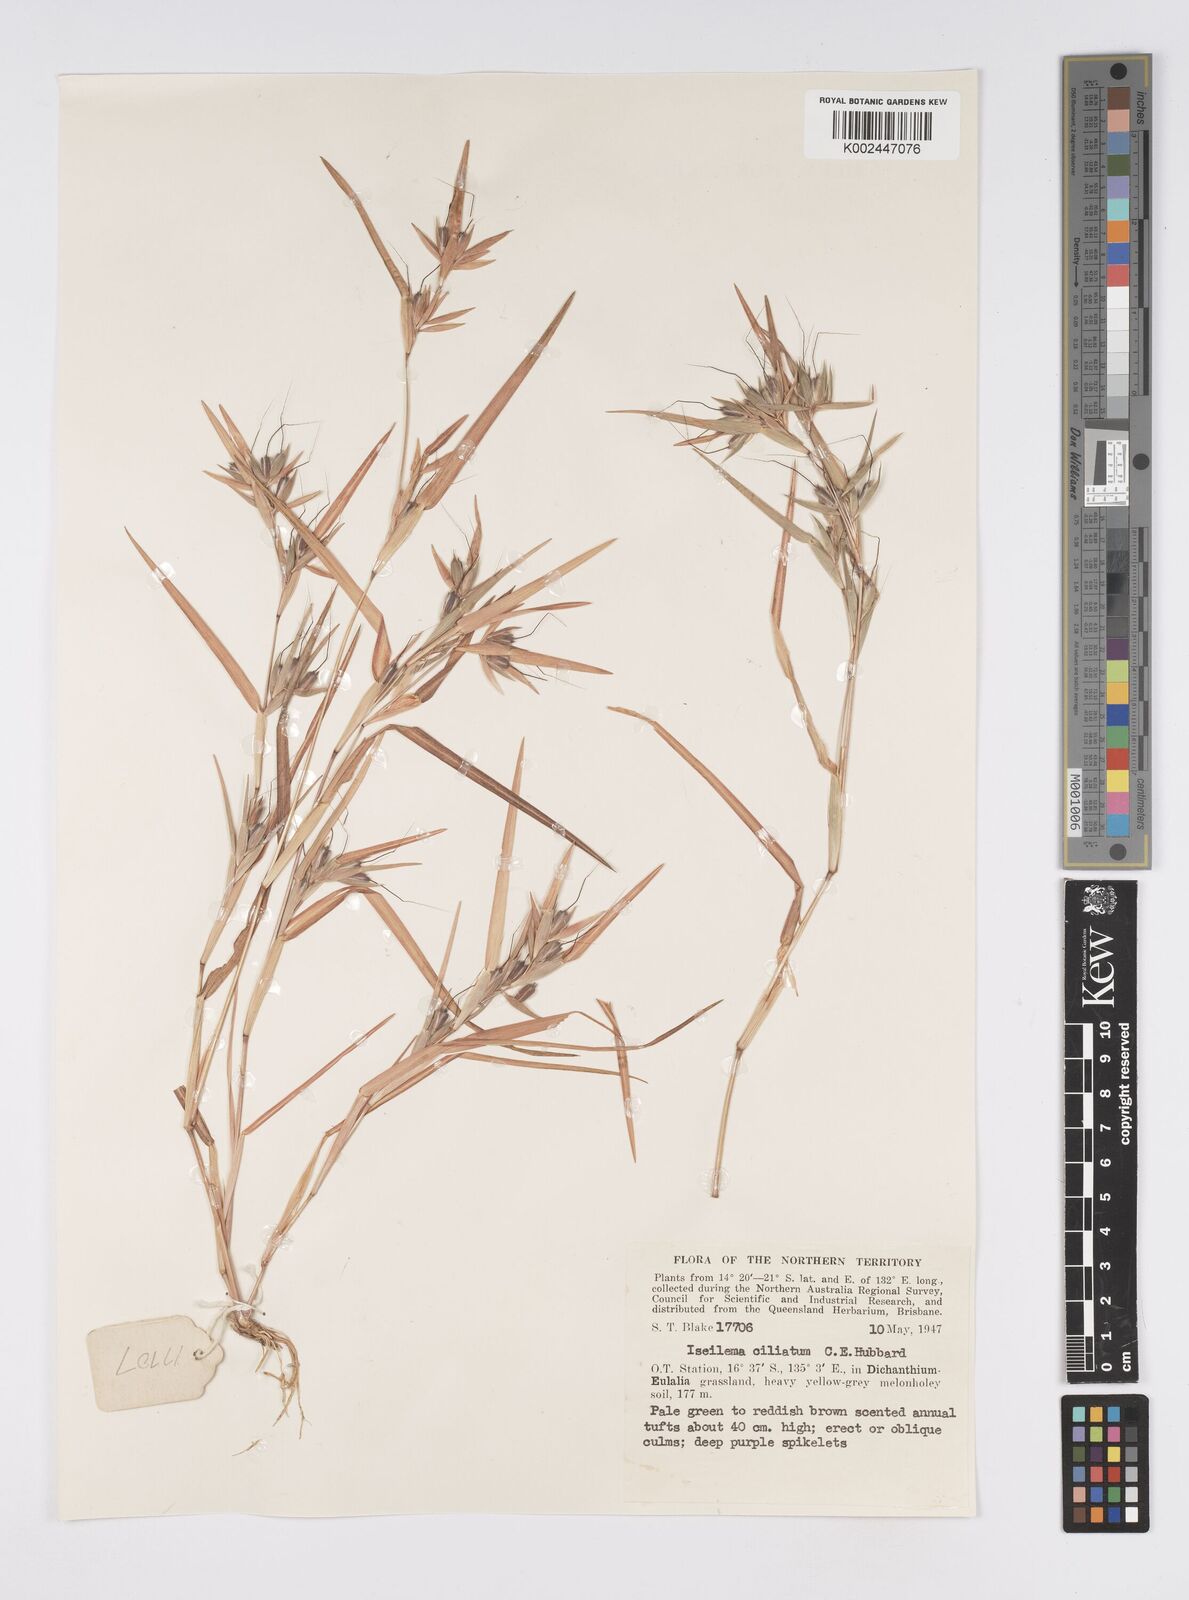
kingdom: Plantae
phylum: Tracheophyta
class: Liliopsida
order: Poales
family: Poaceae
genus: Iseilema
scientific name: Iseilema ciliatum
